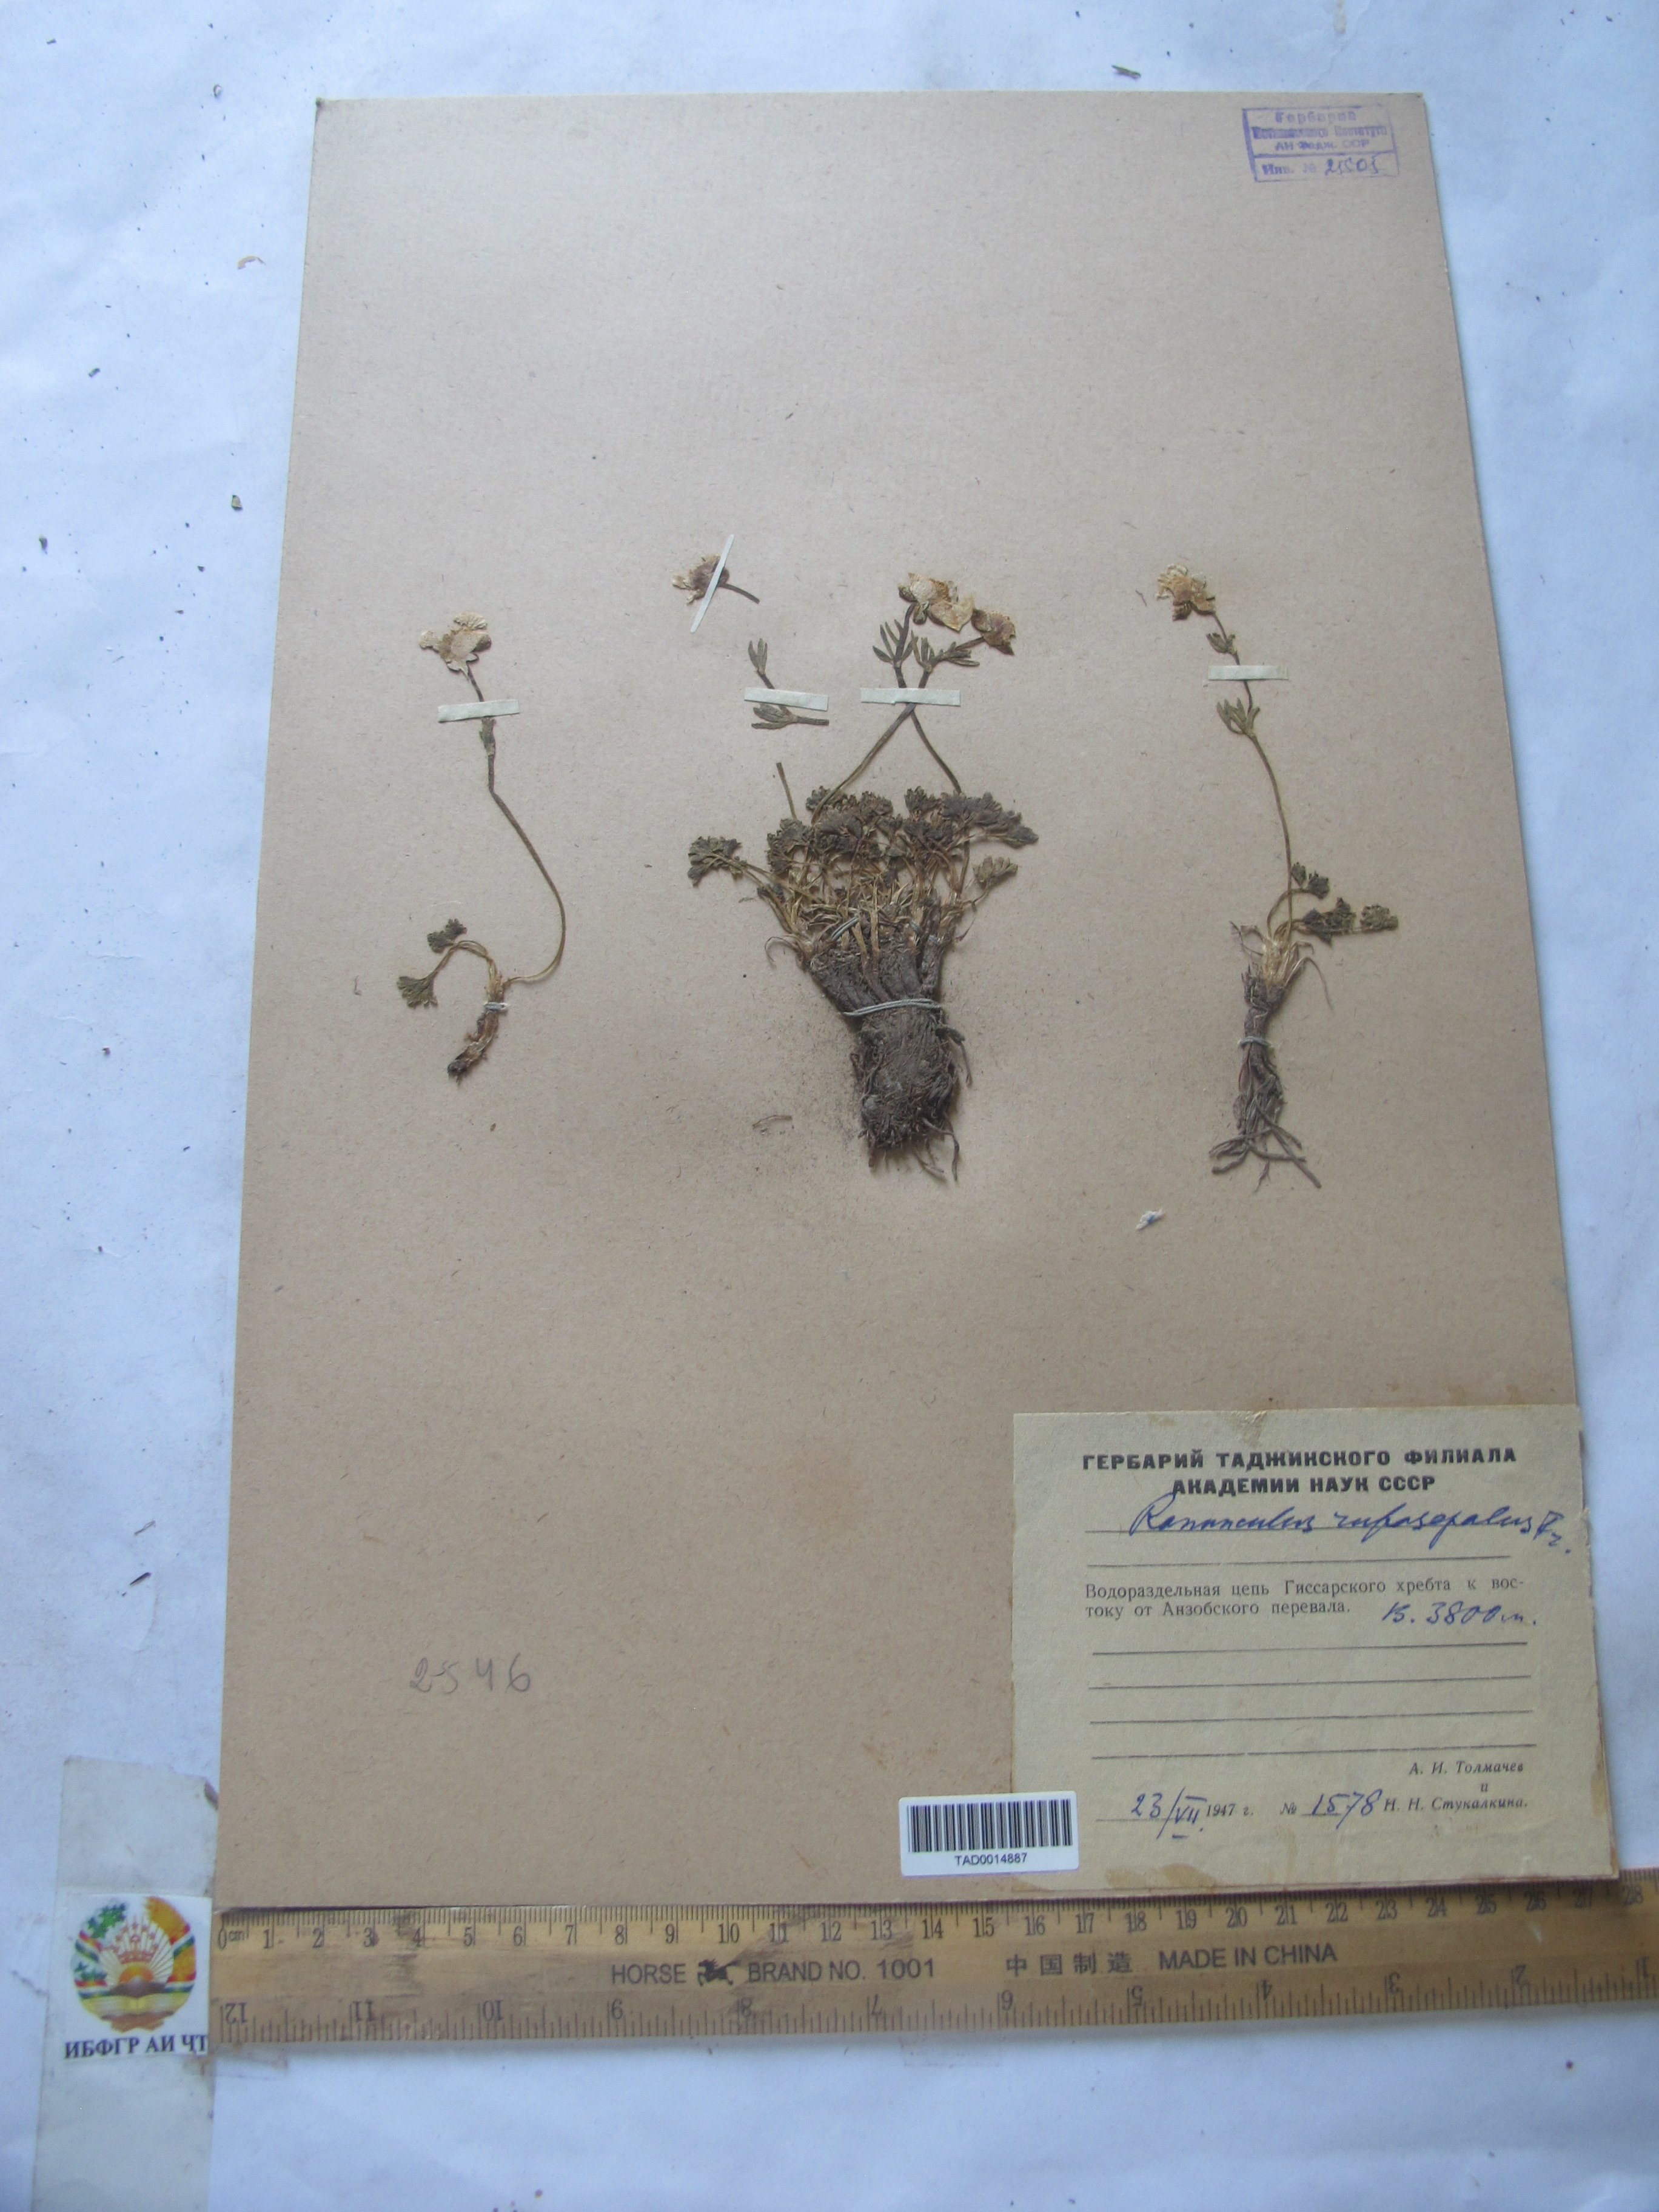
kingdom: Plantae
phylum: Tracheophyta
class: Magnoliopsida
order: Ranunculales
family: Ranunculaceae
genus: Ranunculus
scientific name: Ranunculus rufosepalus
